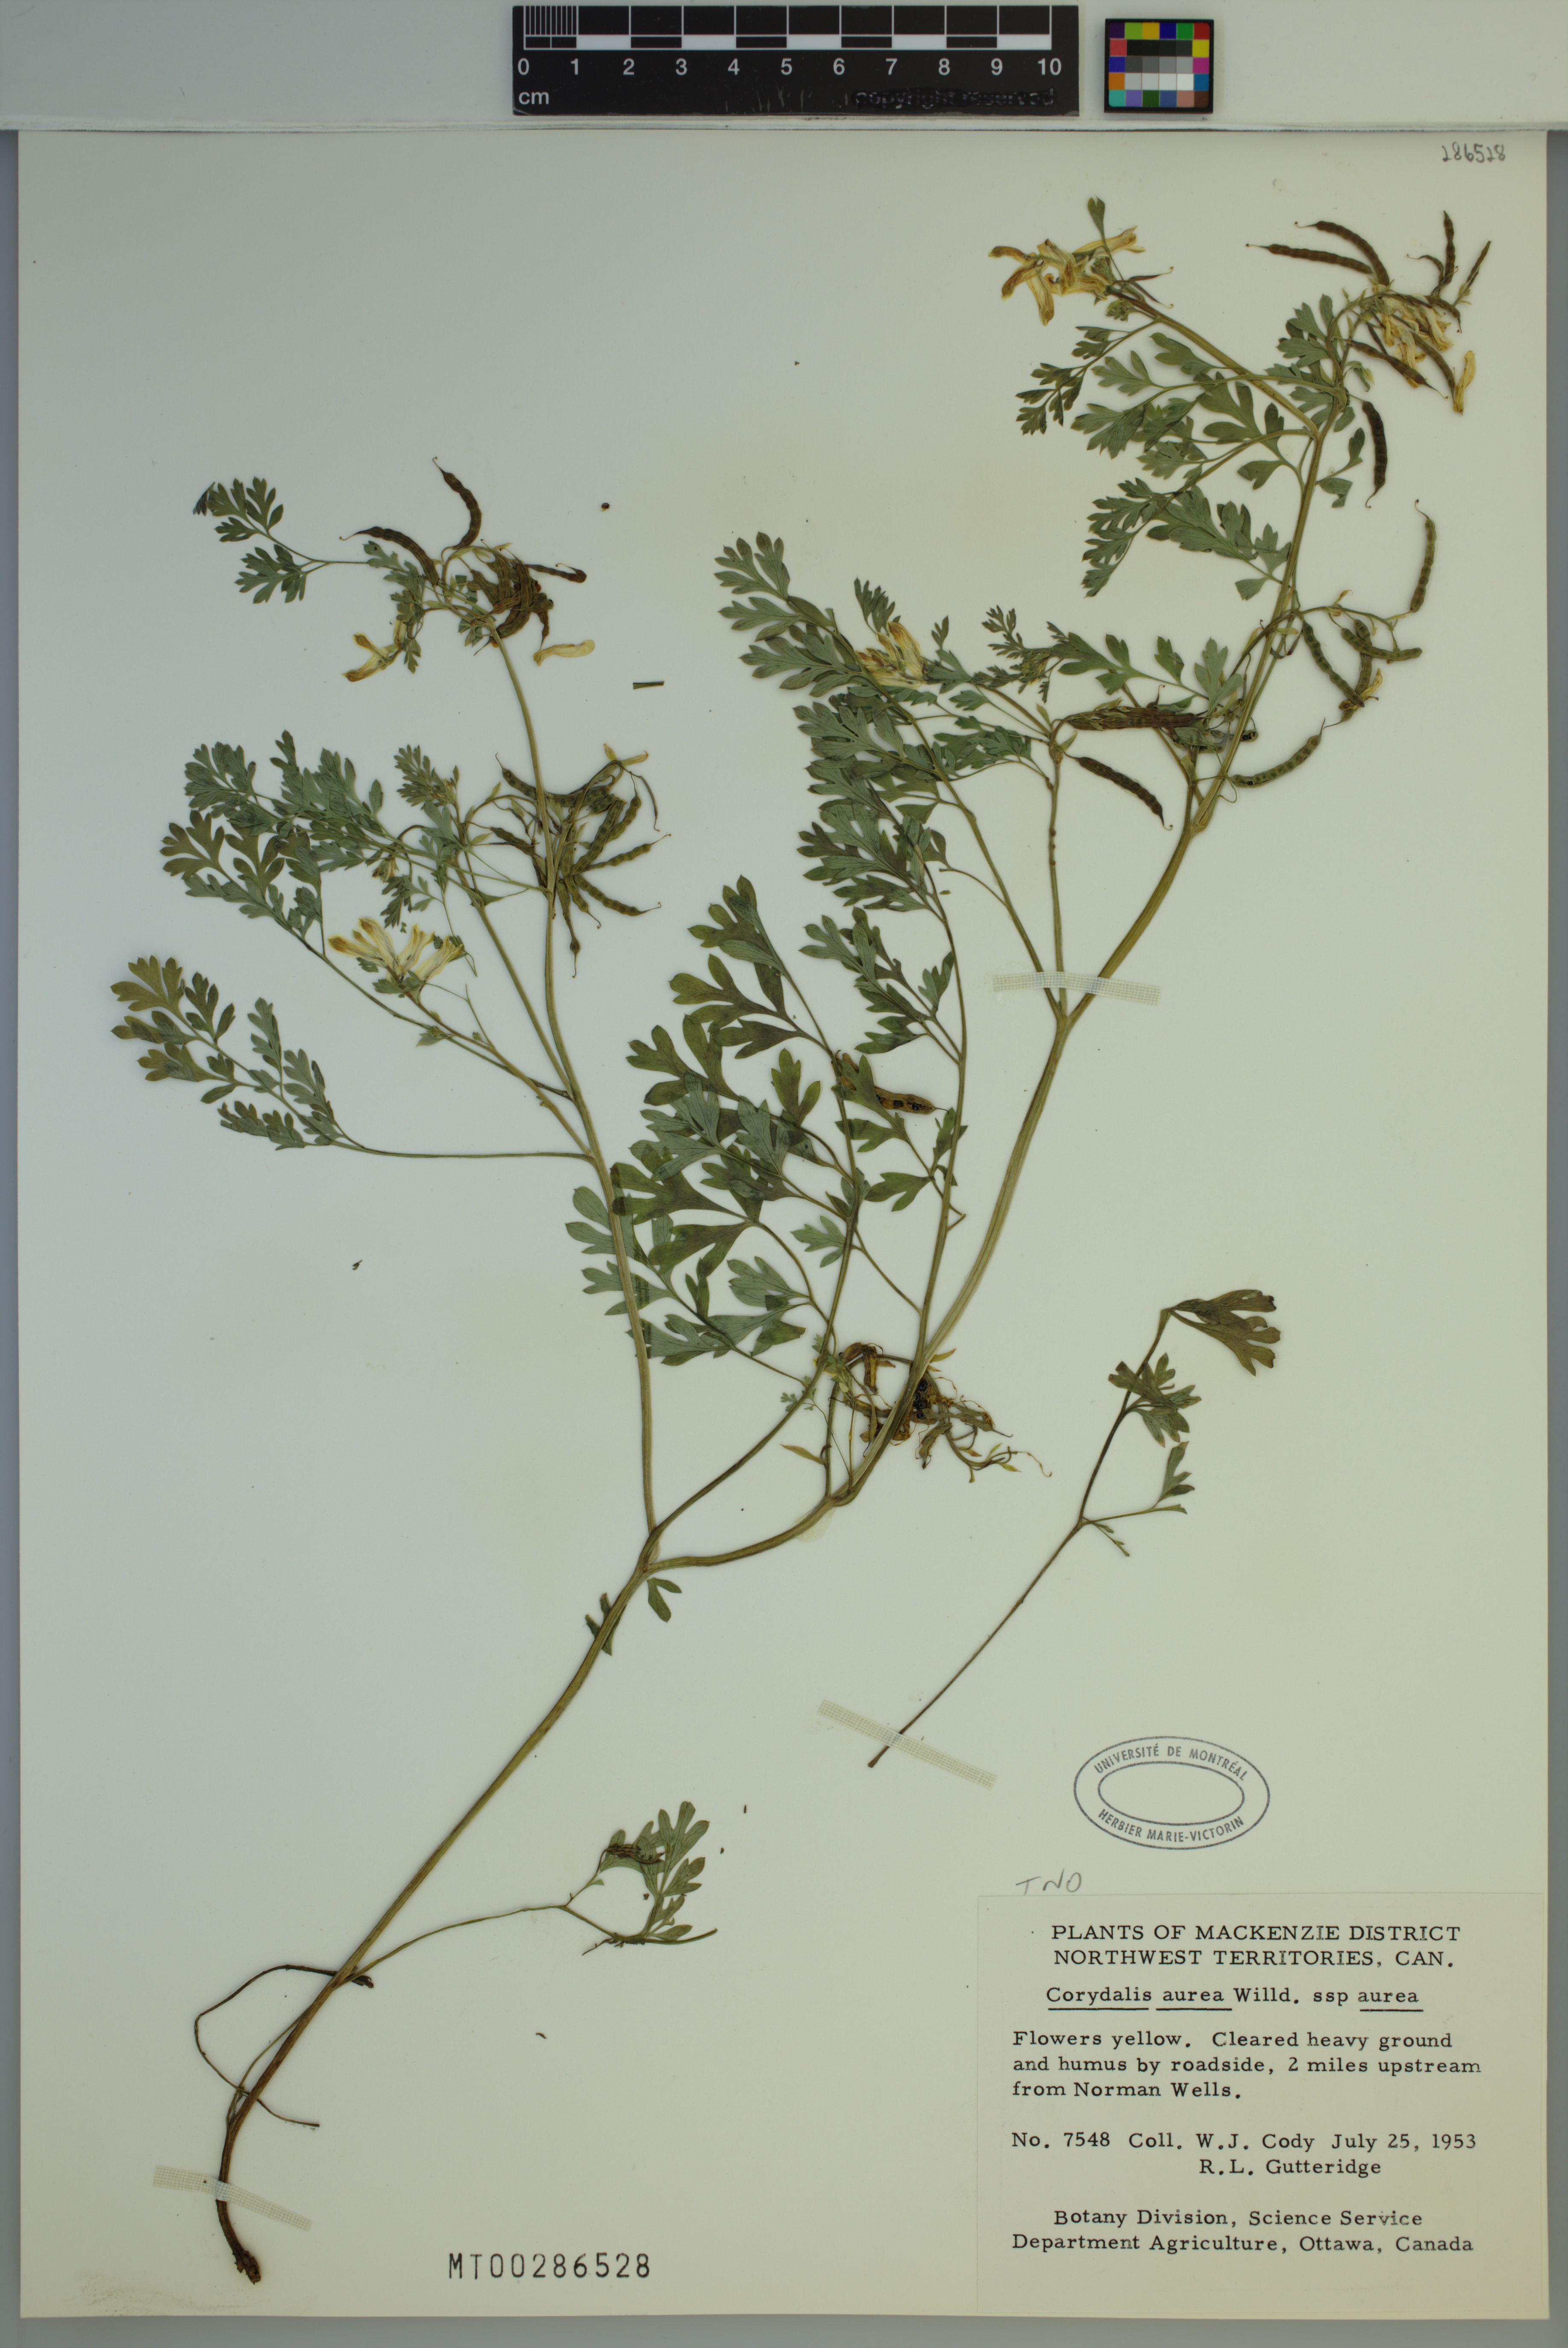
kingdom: Plantae
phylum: Tracheophyta
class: Magnoliopsida
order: Ranunculales
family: Papaveraceae
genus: Corydalis
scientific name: Corydalis aurea
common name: Golden corydalis
